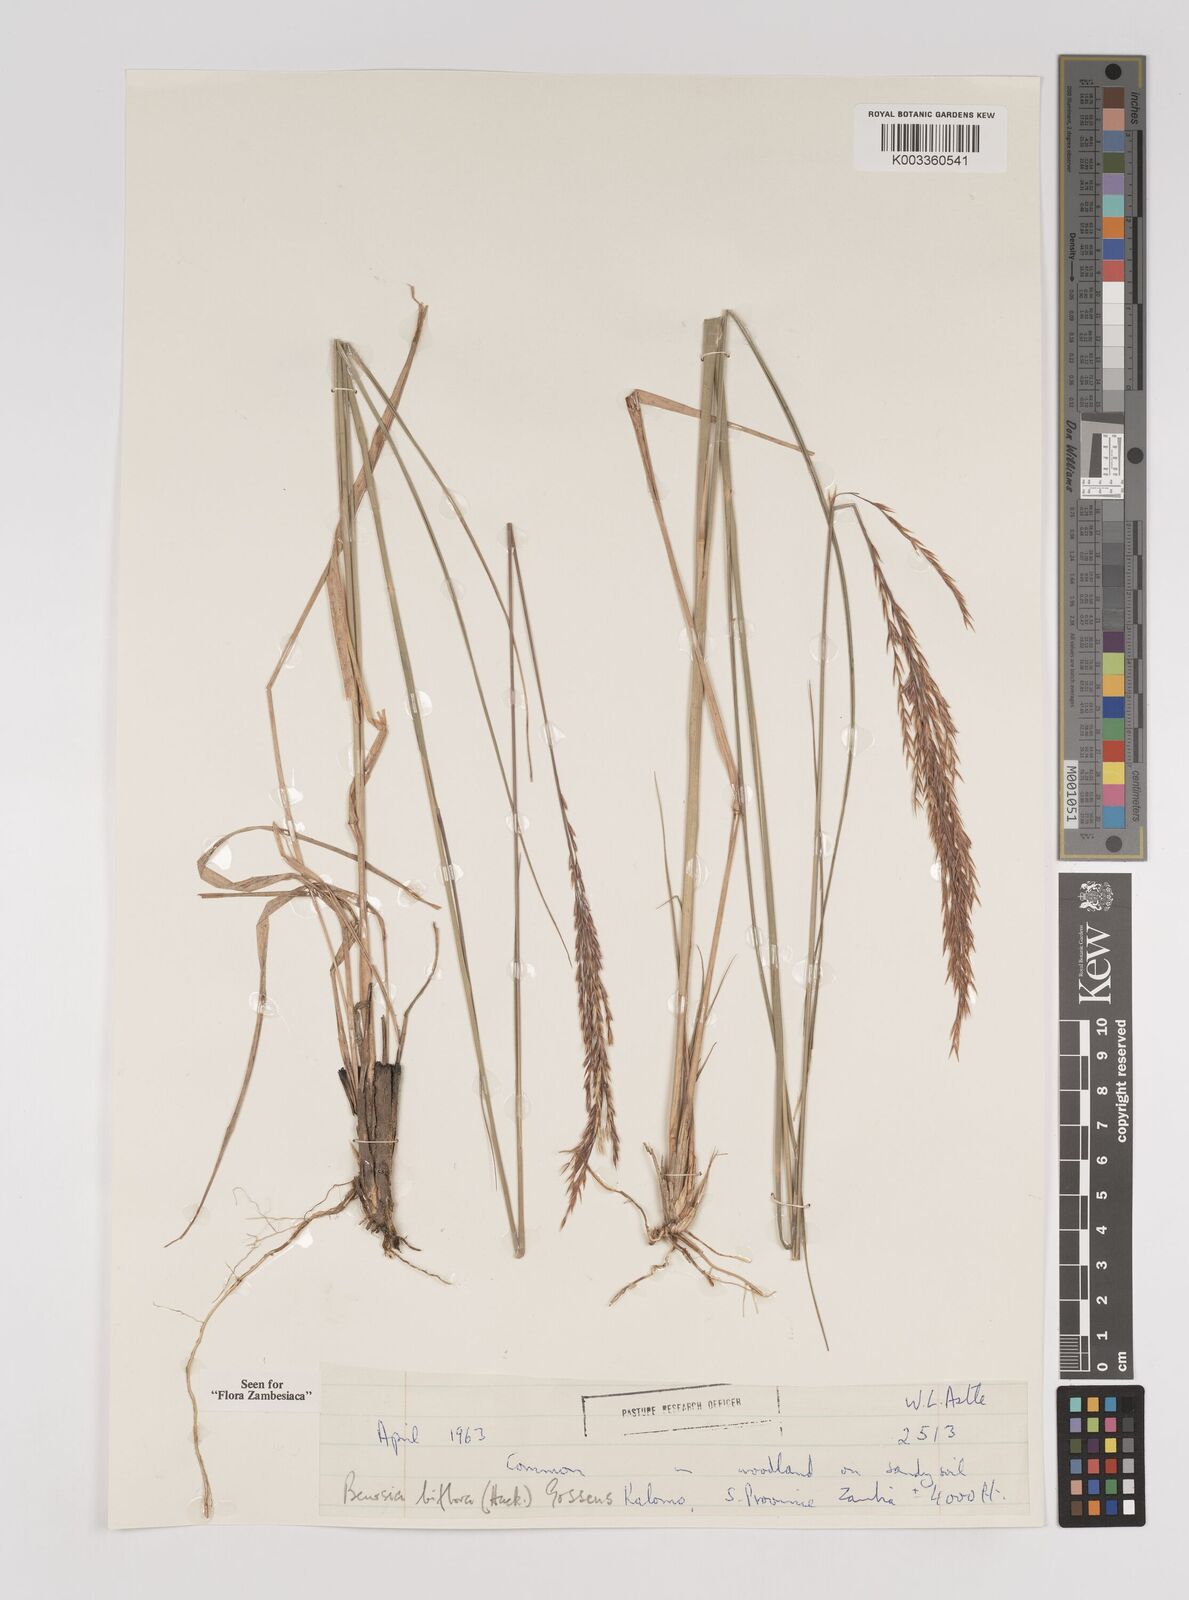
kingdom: Plantae
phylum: Tracheophyta
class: Liliopsida
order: Poales
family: Poaceae
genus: Bewsia
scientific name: Bewsia biflora
